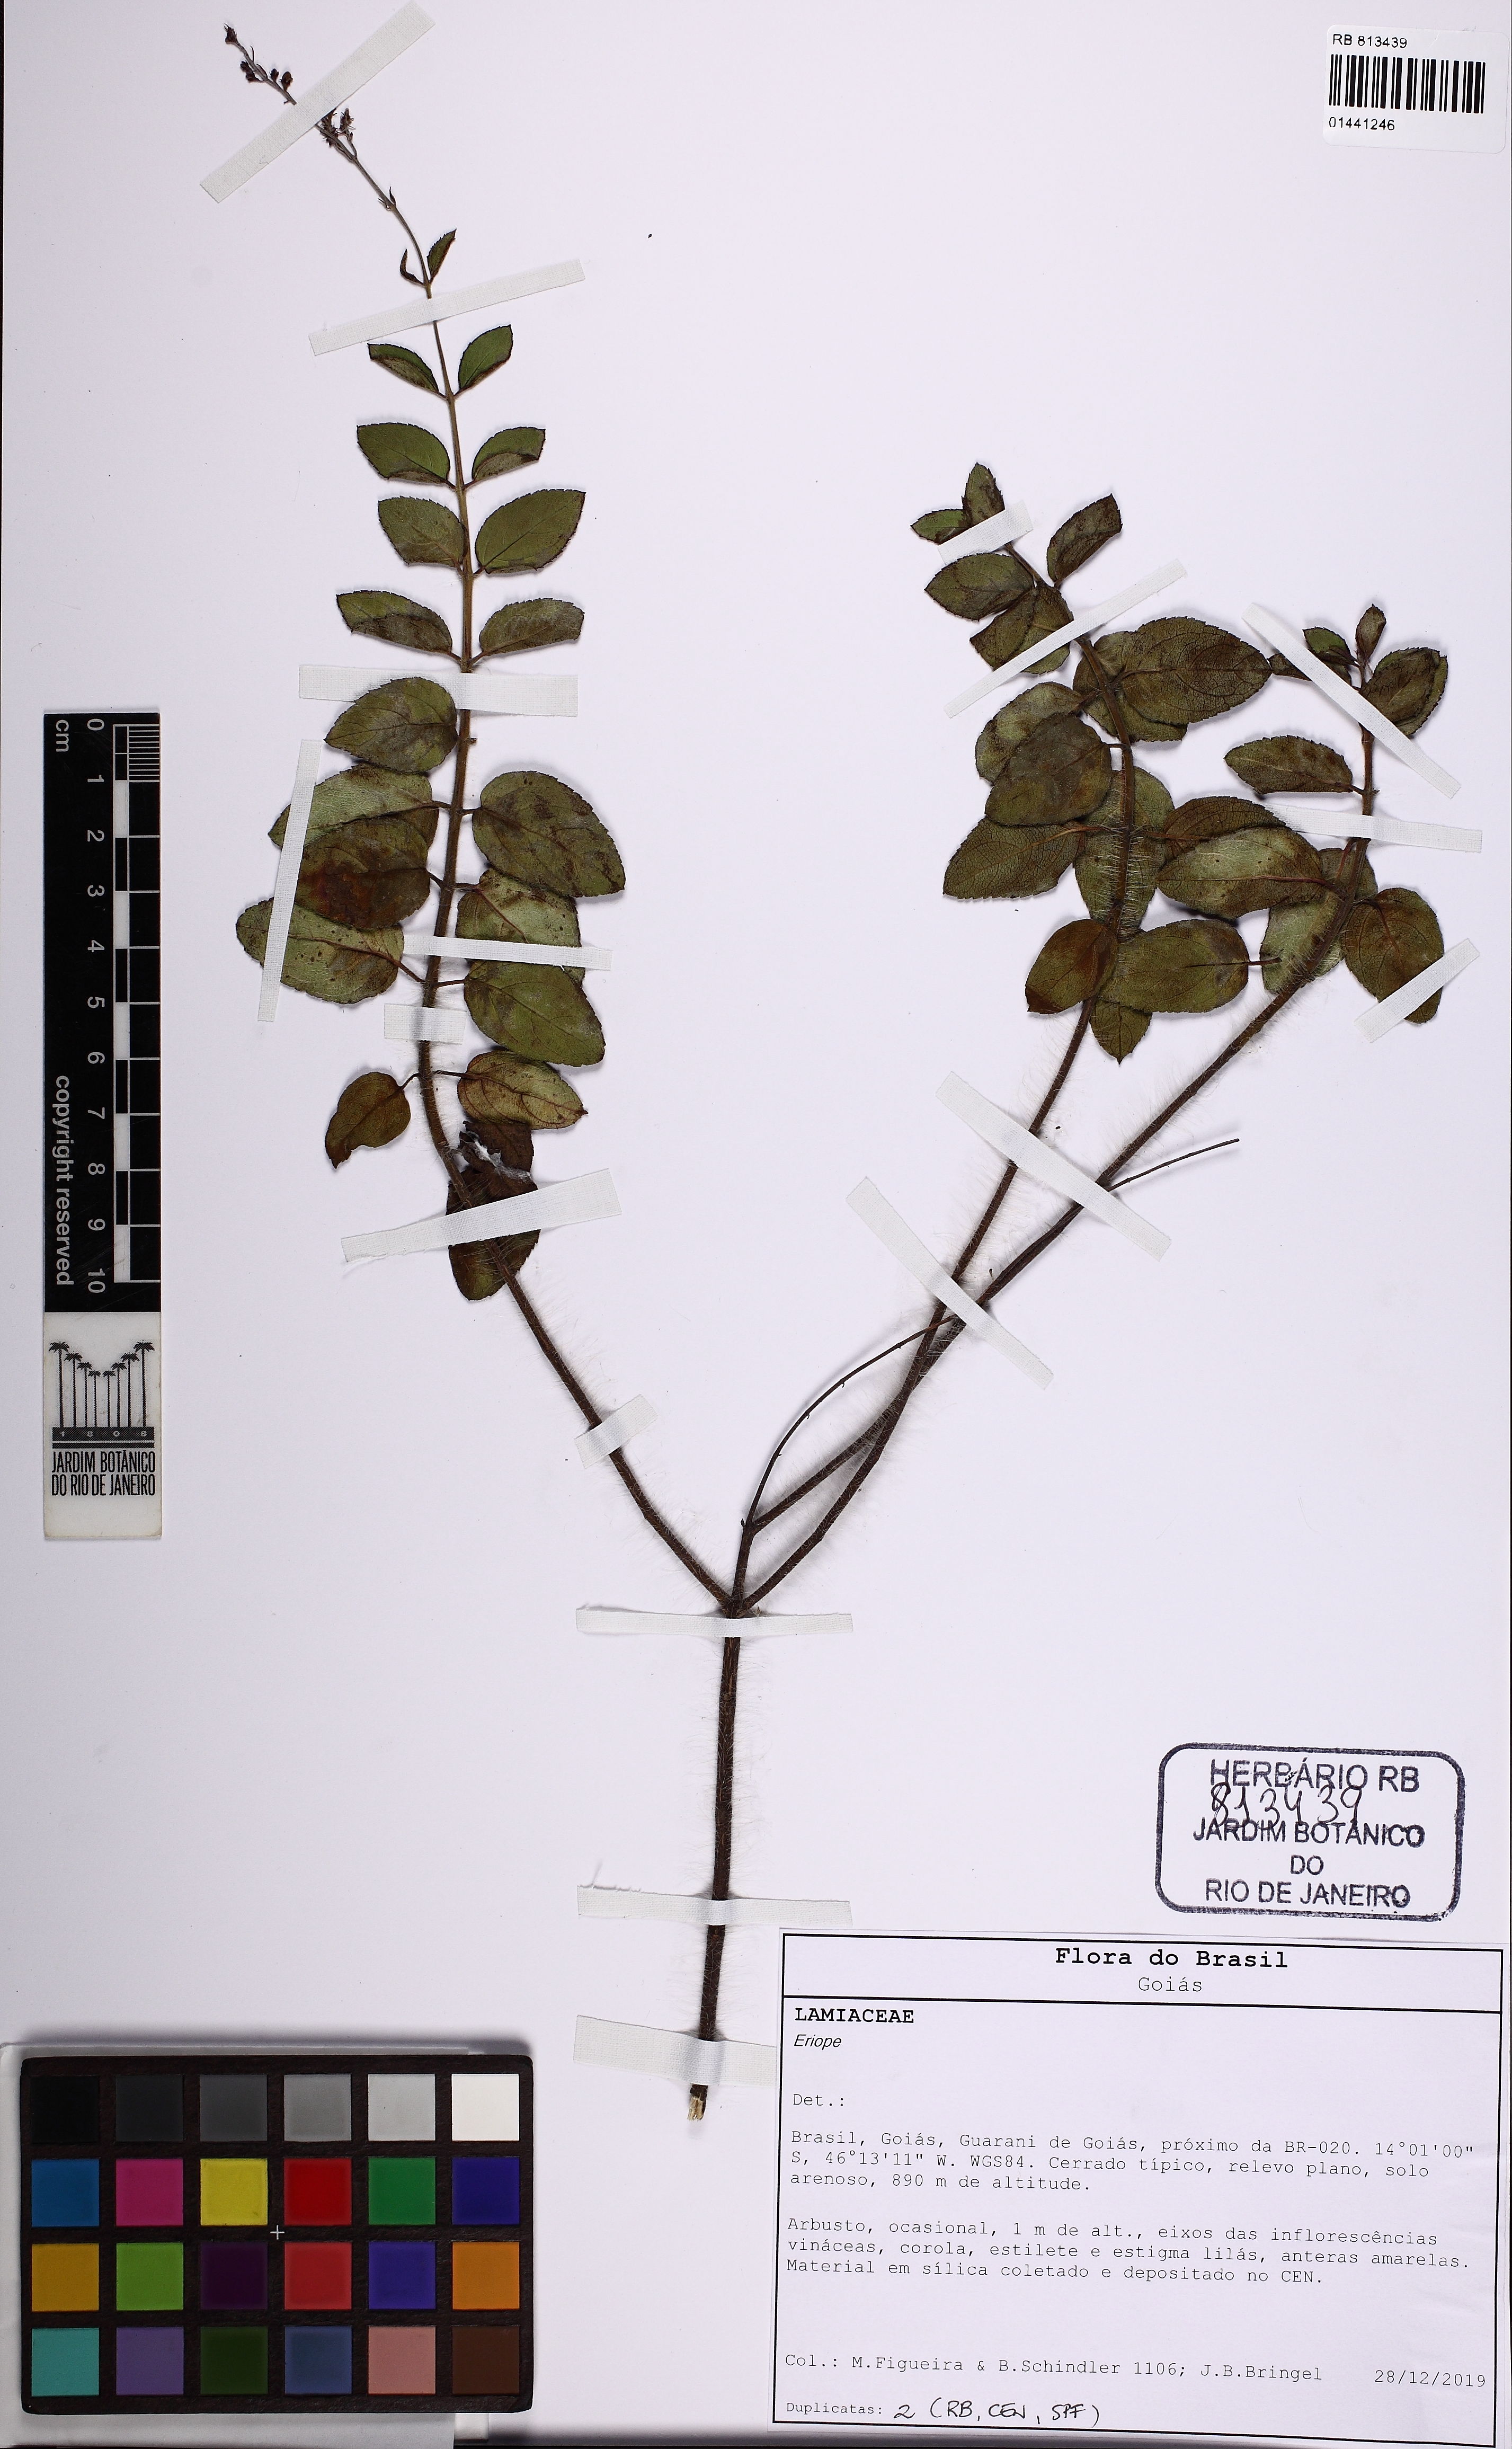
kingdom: Plantae
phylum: Tracheophyta
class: Magnoliopsida
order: Lamiales
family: Lamiaceae
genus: Eriope
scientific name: Eriope
